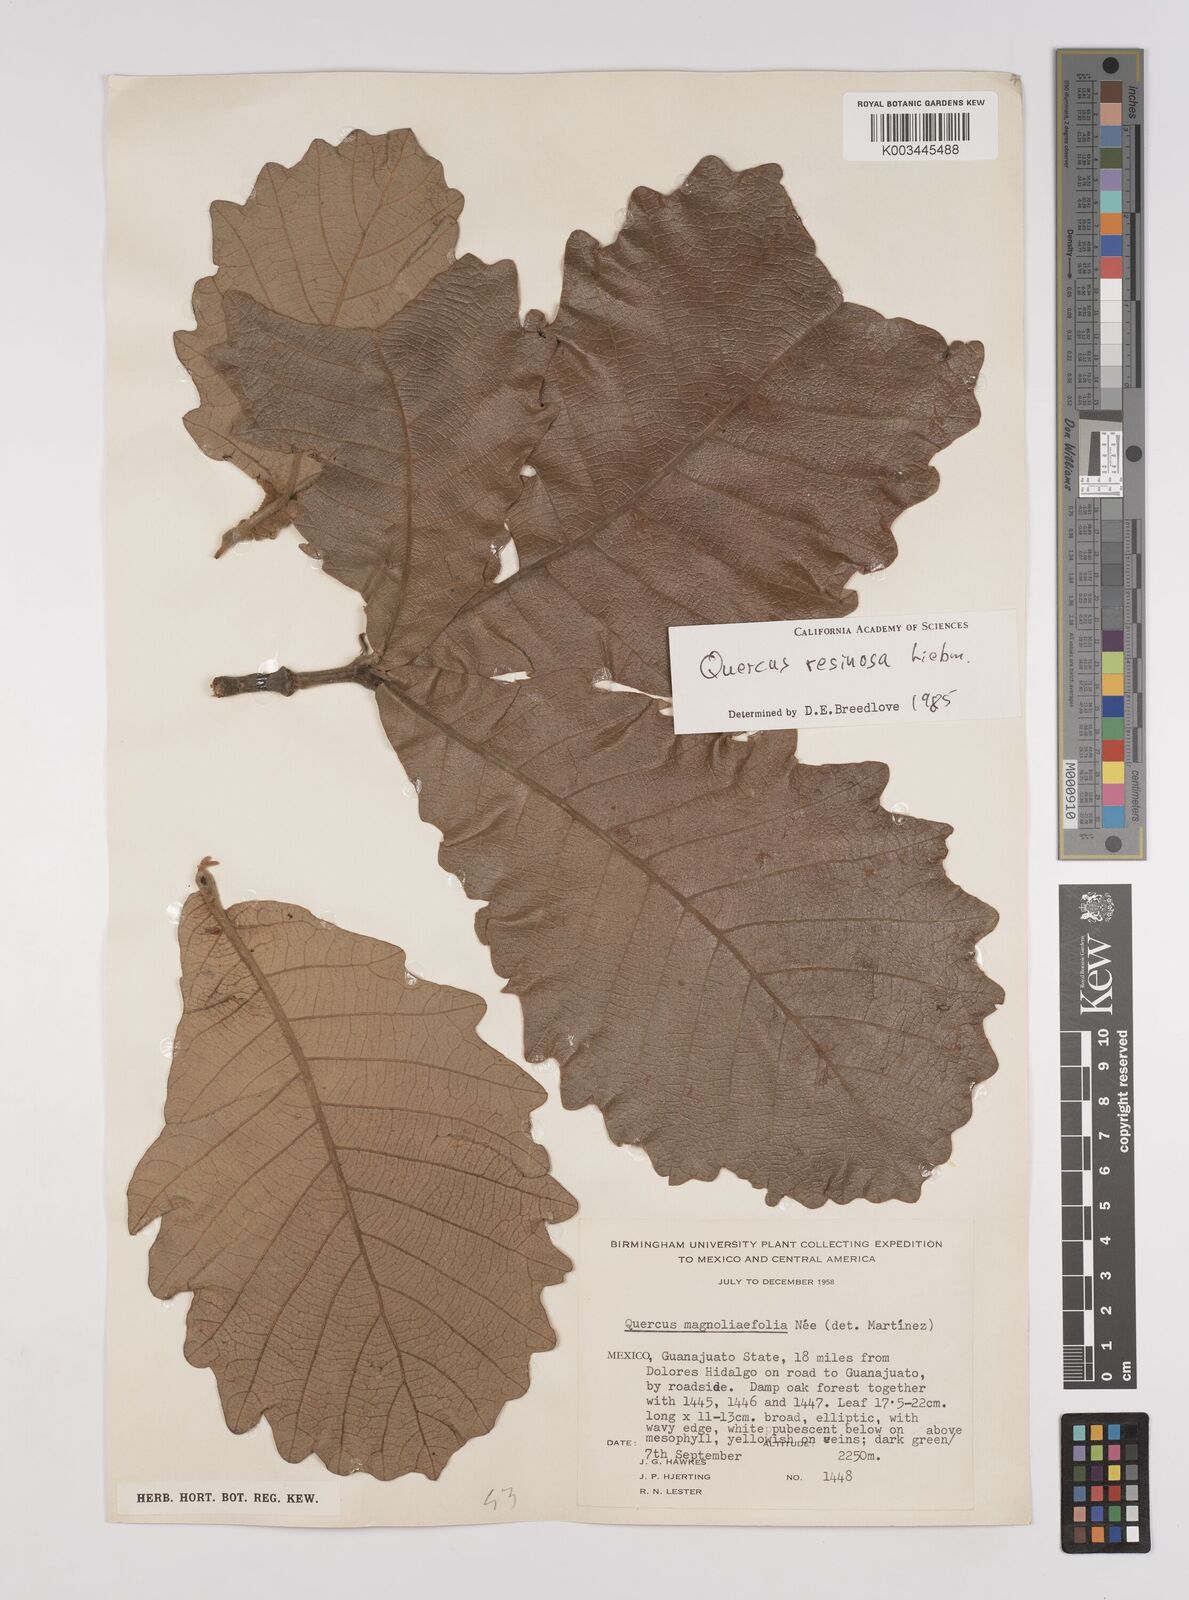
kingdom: Plantae
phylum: Tracheophyta
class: Magnoliopsida
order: Fagales
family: Fagaceae
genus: Quercus
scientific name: Quercus resinosa
